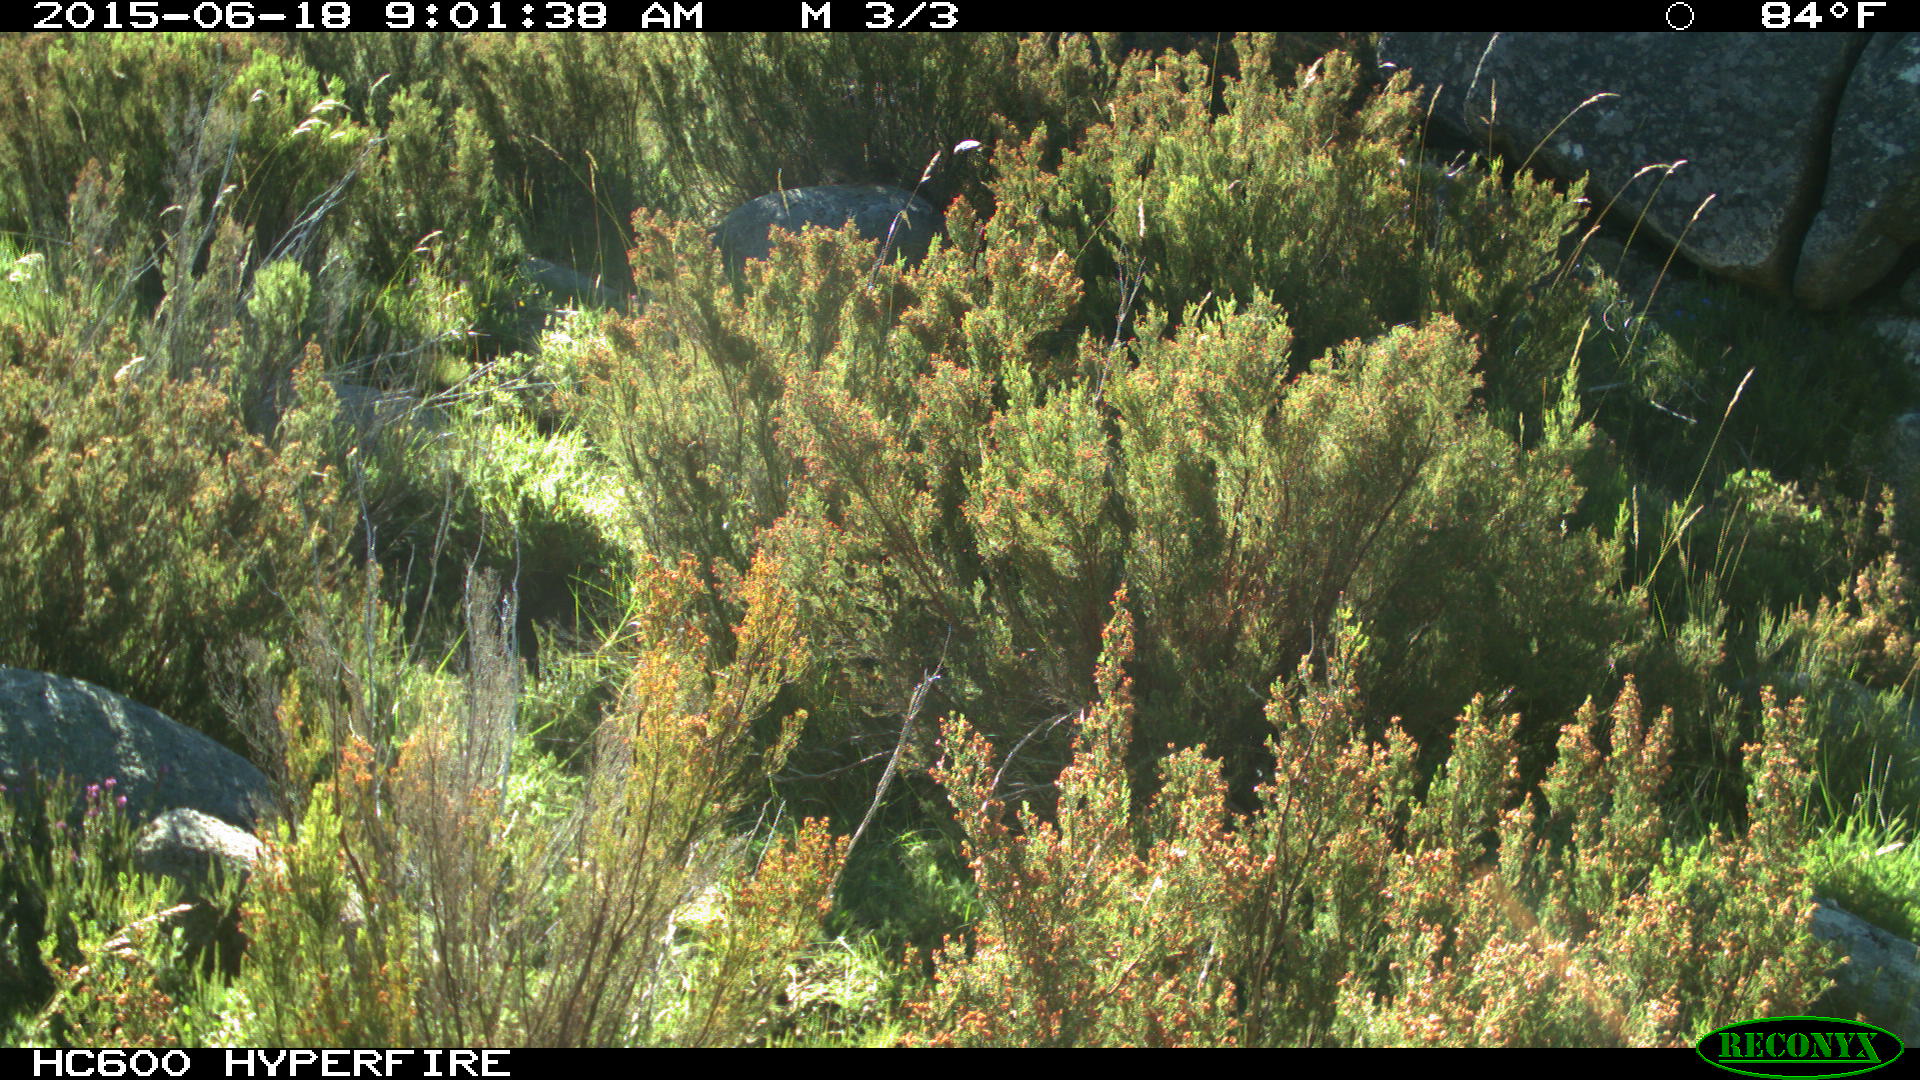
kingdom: Animalia
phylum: Chordata
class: Mammalia
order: Artiodactyla
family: Bovidae
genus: Bos
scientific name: Bos taurus
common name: Domesticated cattle
